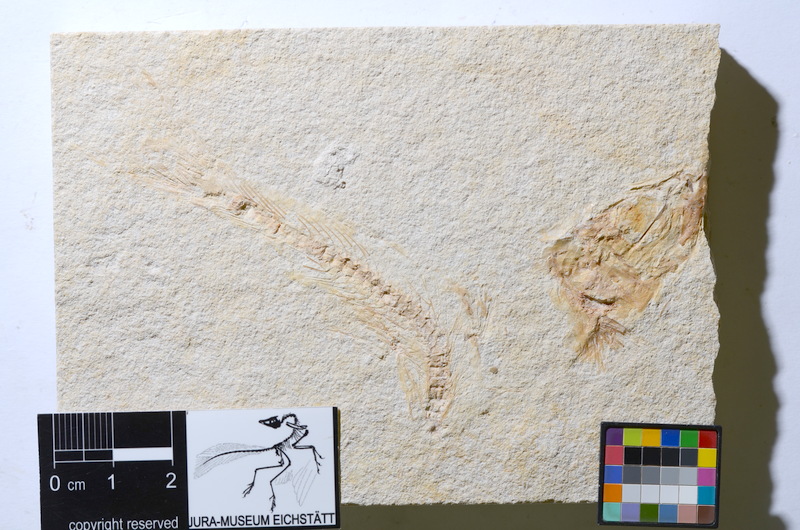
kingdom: Animalia
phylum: Chordata
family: Ascalaboidae
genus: Tharsis
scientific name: Tharsis
